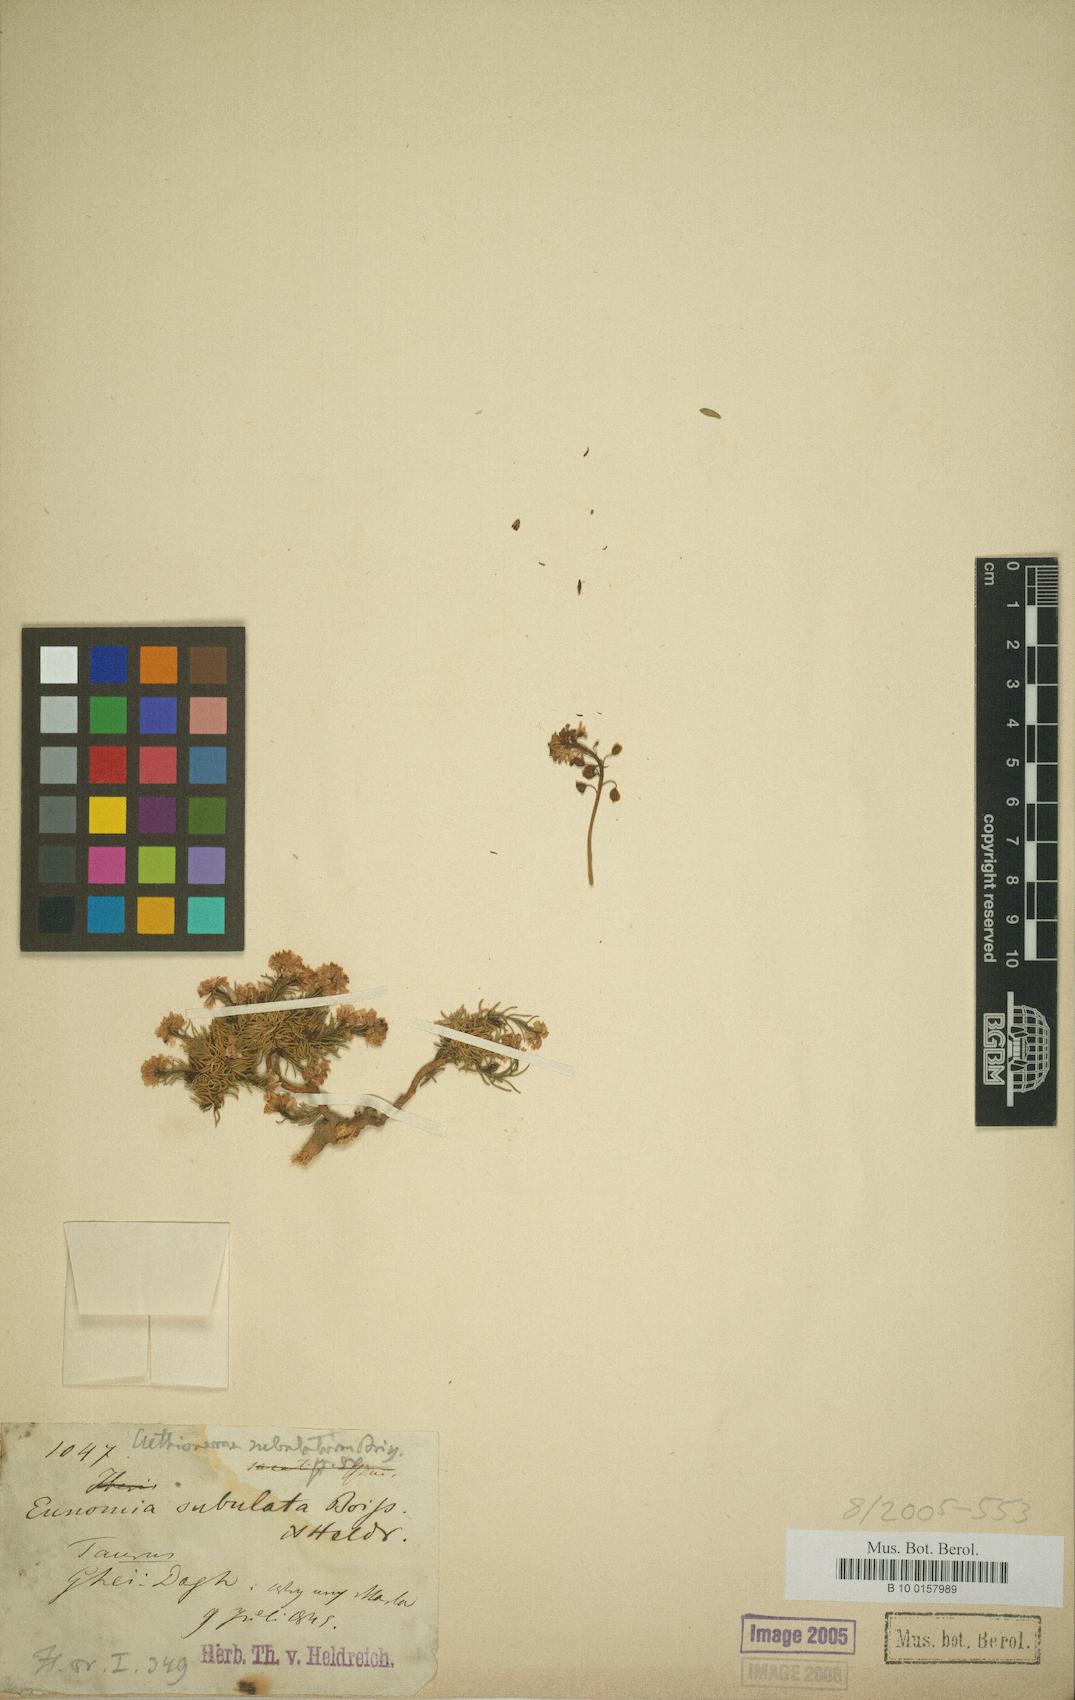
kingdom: Plantae
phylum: Tracheophyta
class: Magnoliopsida
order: Brassicales
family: Brassicaceae
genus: Aethionema
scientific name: Aethionema subulatum
